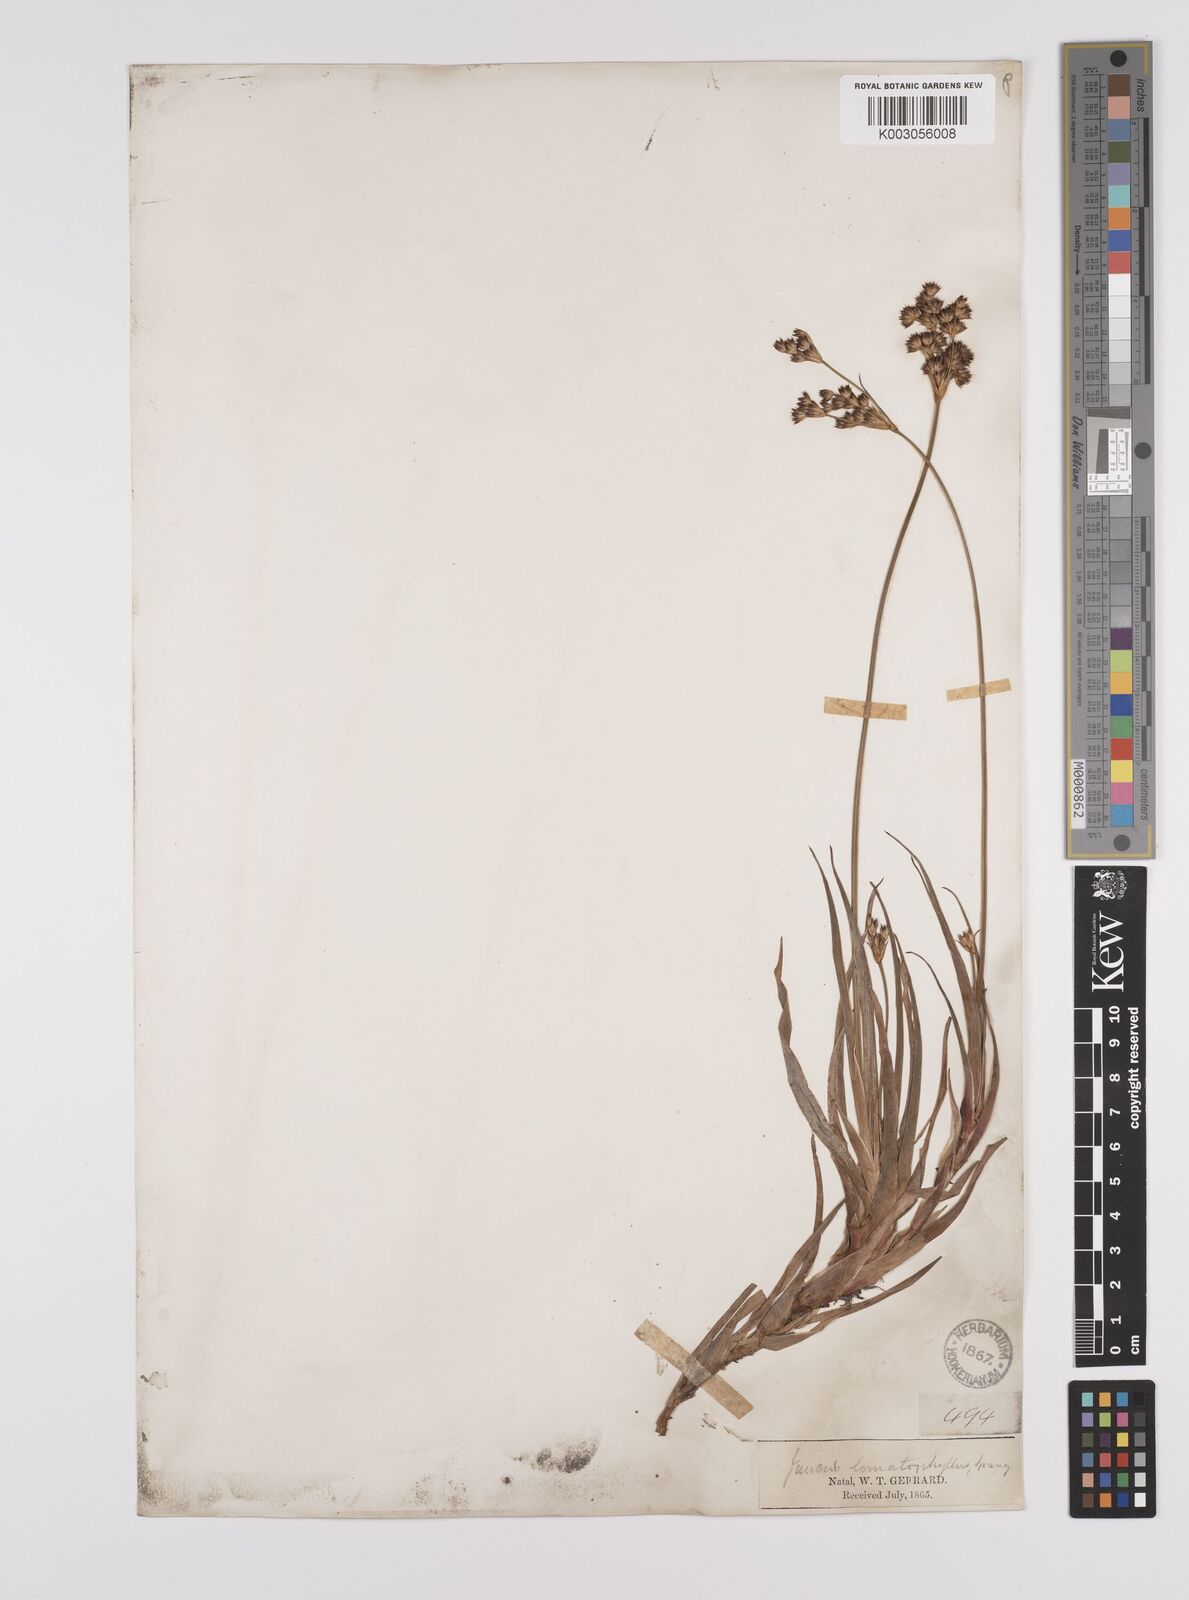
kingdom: Plantae
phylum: Tracheophyta
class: Liliopsida
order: Poales
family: Juncaceae
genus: Juncus
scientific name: Juncus lomatophyllus
